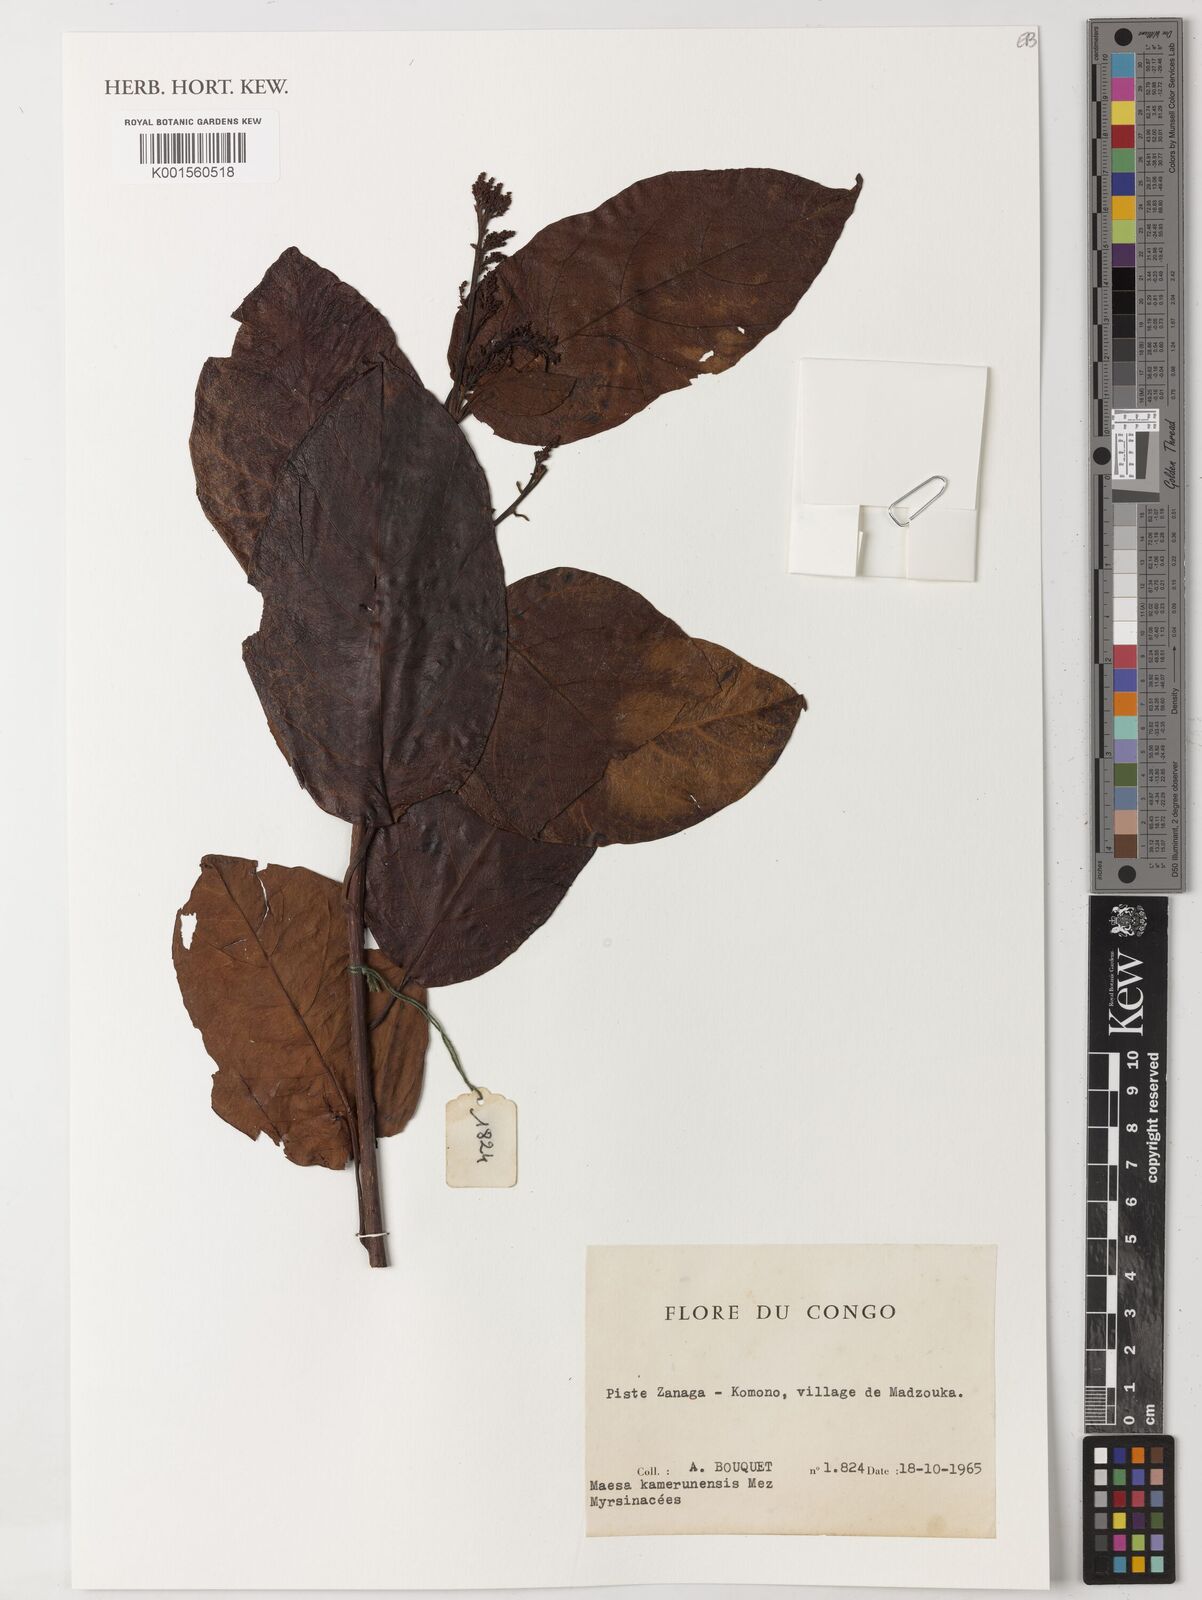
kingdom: Plantae
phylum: Tracheophyta
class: Magnoliopsida
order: Ericales
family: Primulaceae
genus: Maesa
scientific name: Maesa kamerunensis
